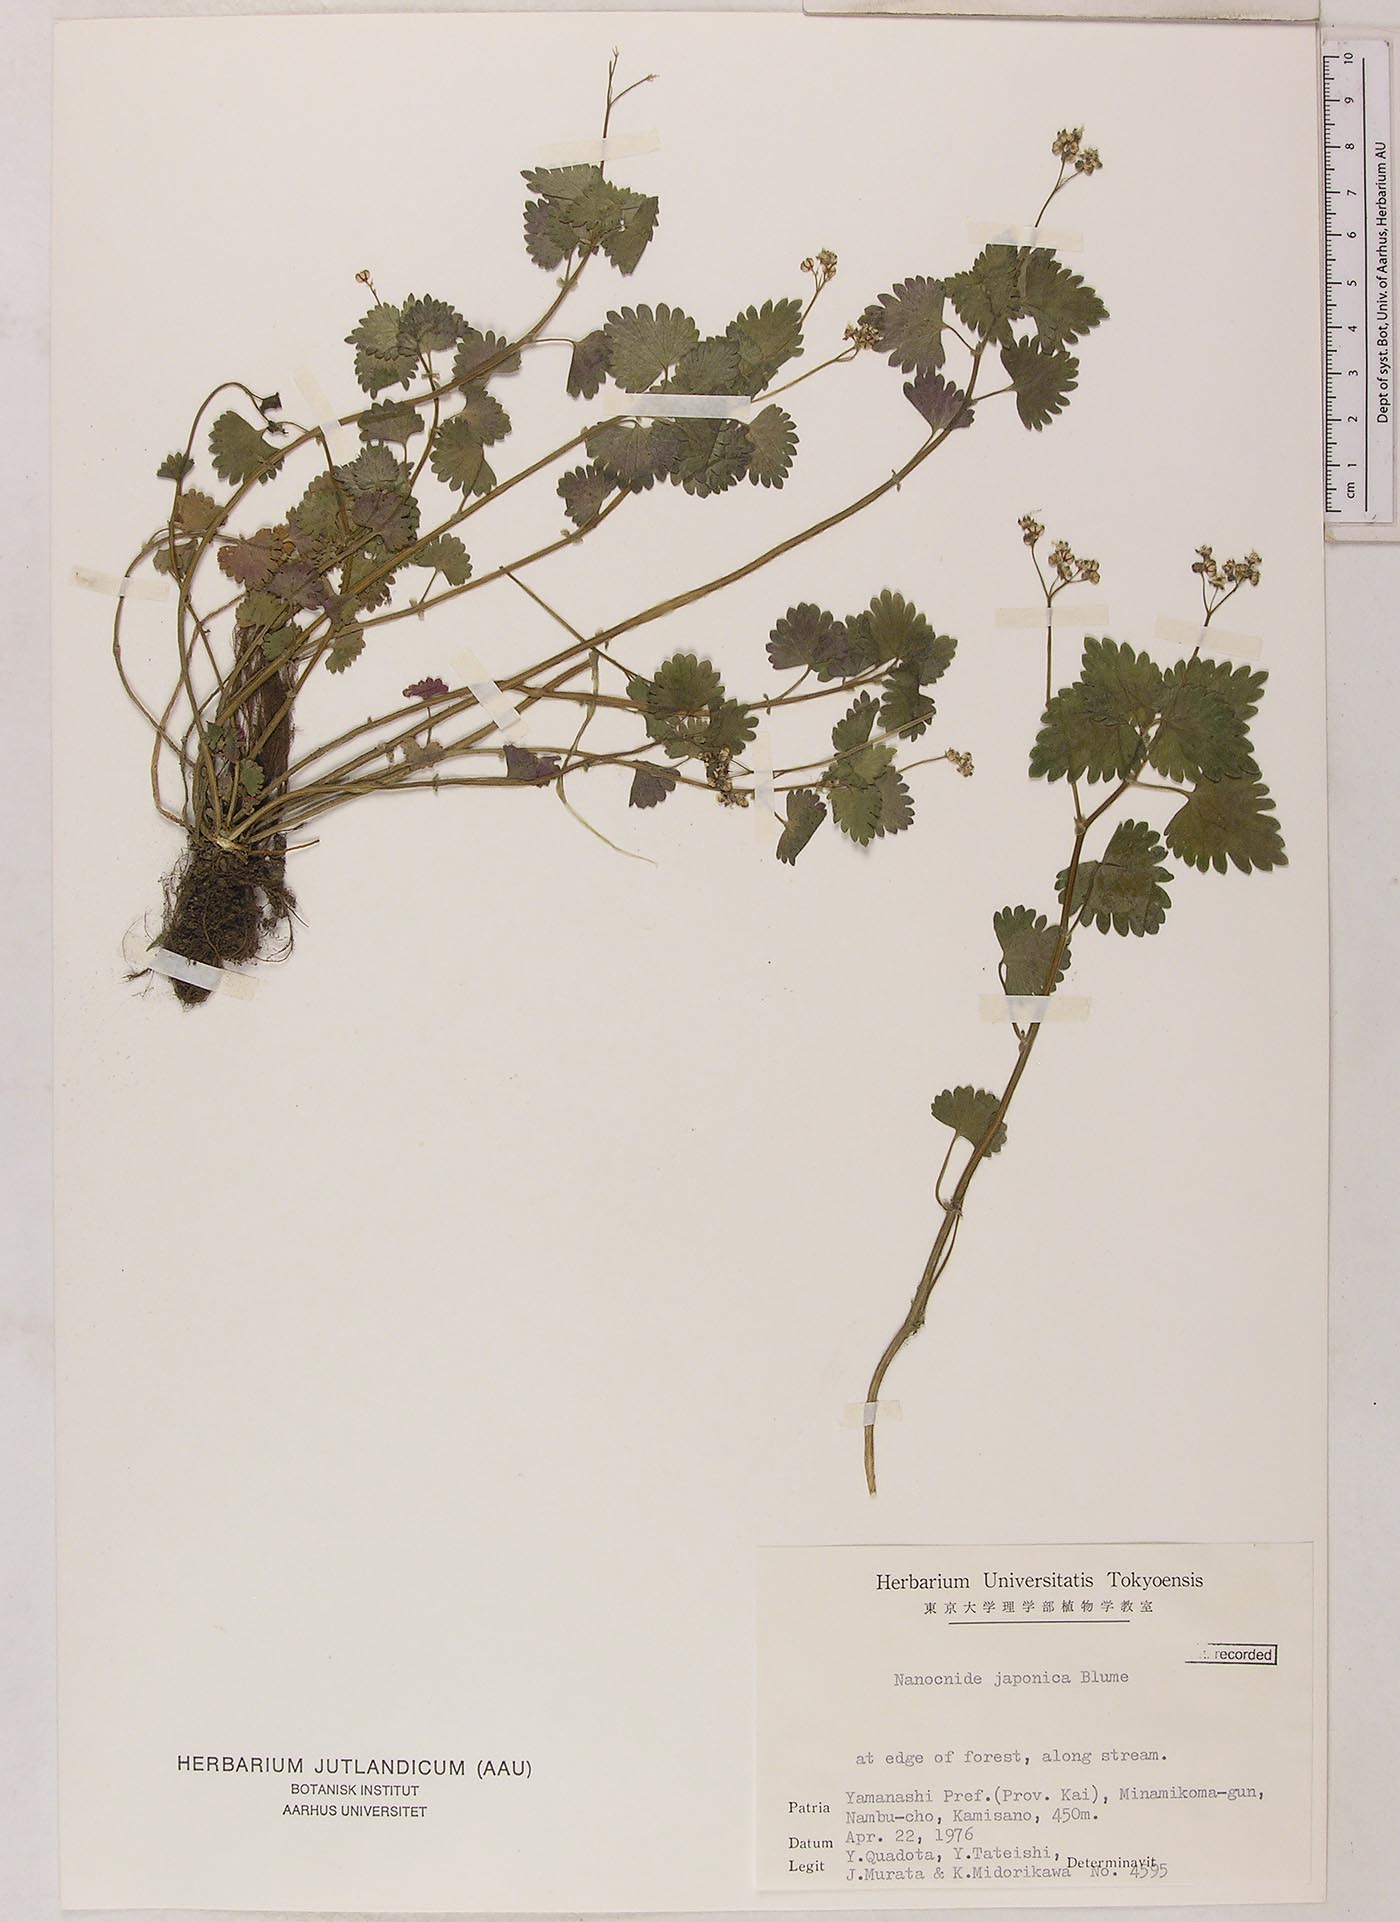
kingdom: Plantae
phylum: Tracheophyta
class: Magnoliopsida
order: Rosales
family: Urticaceae
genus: Nanocnide
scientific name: Nanocnide lobata
